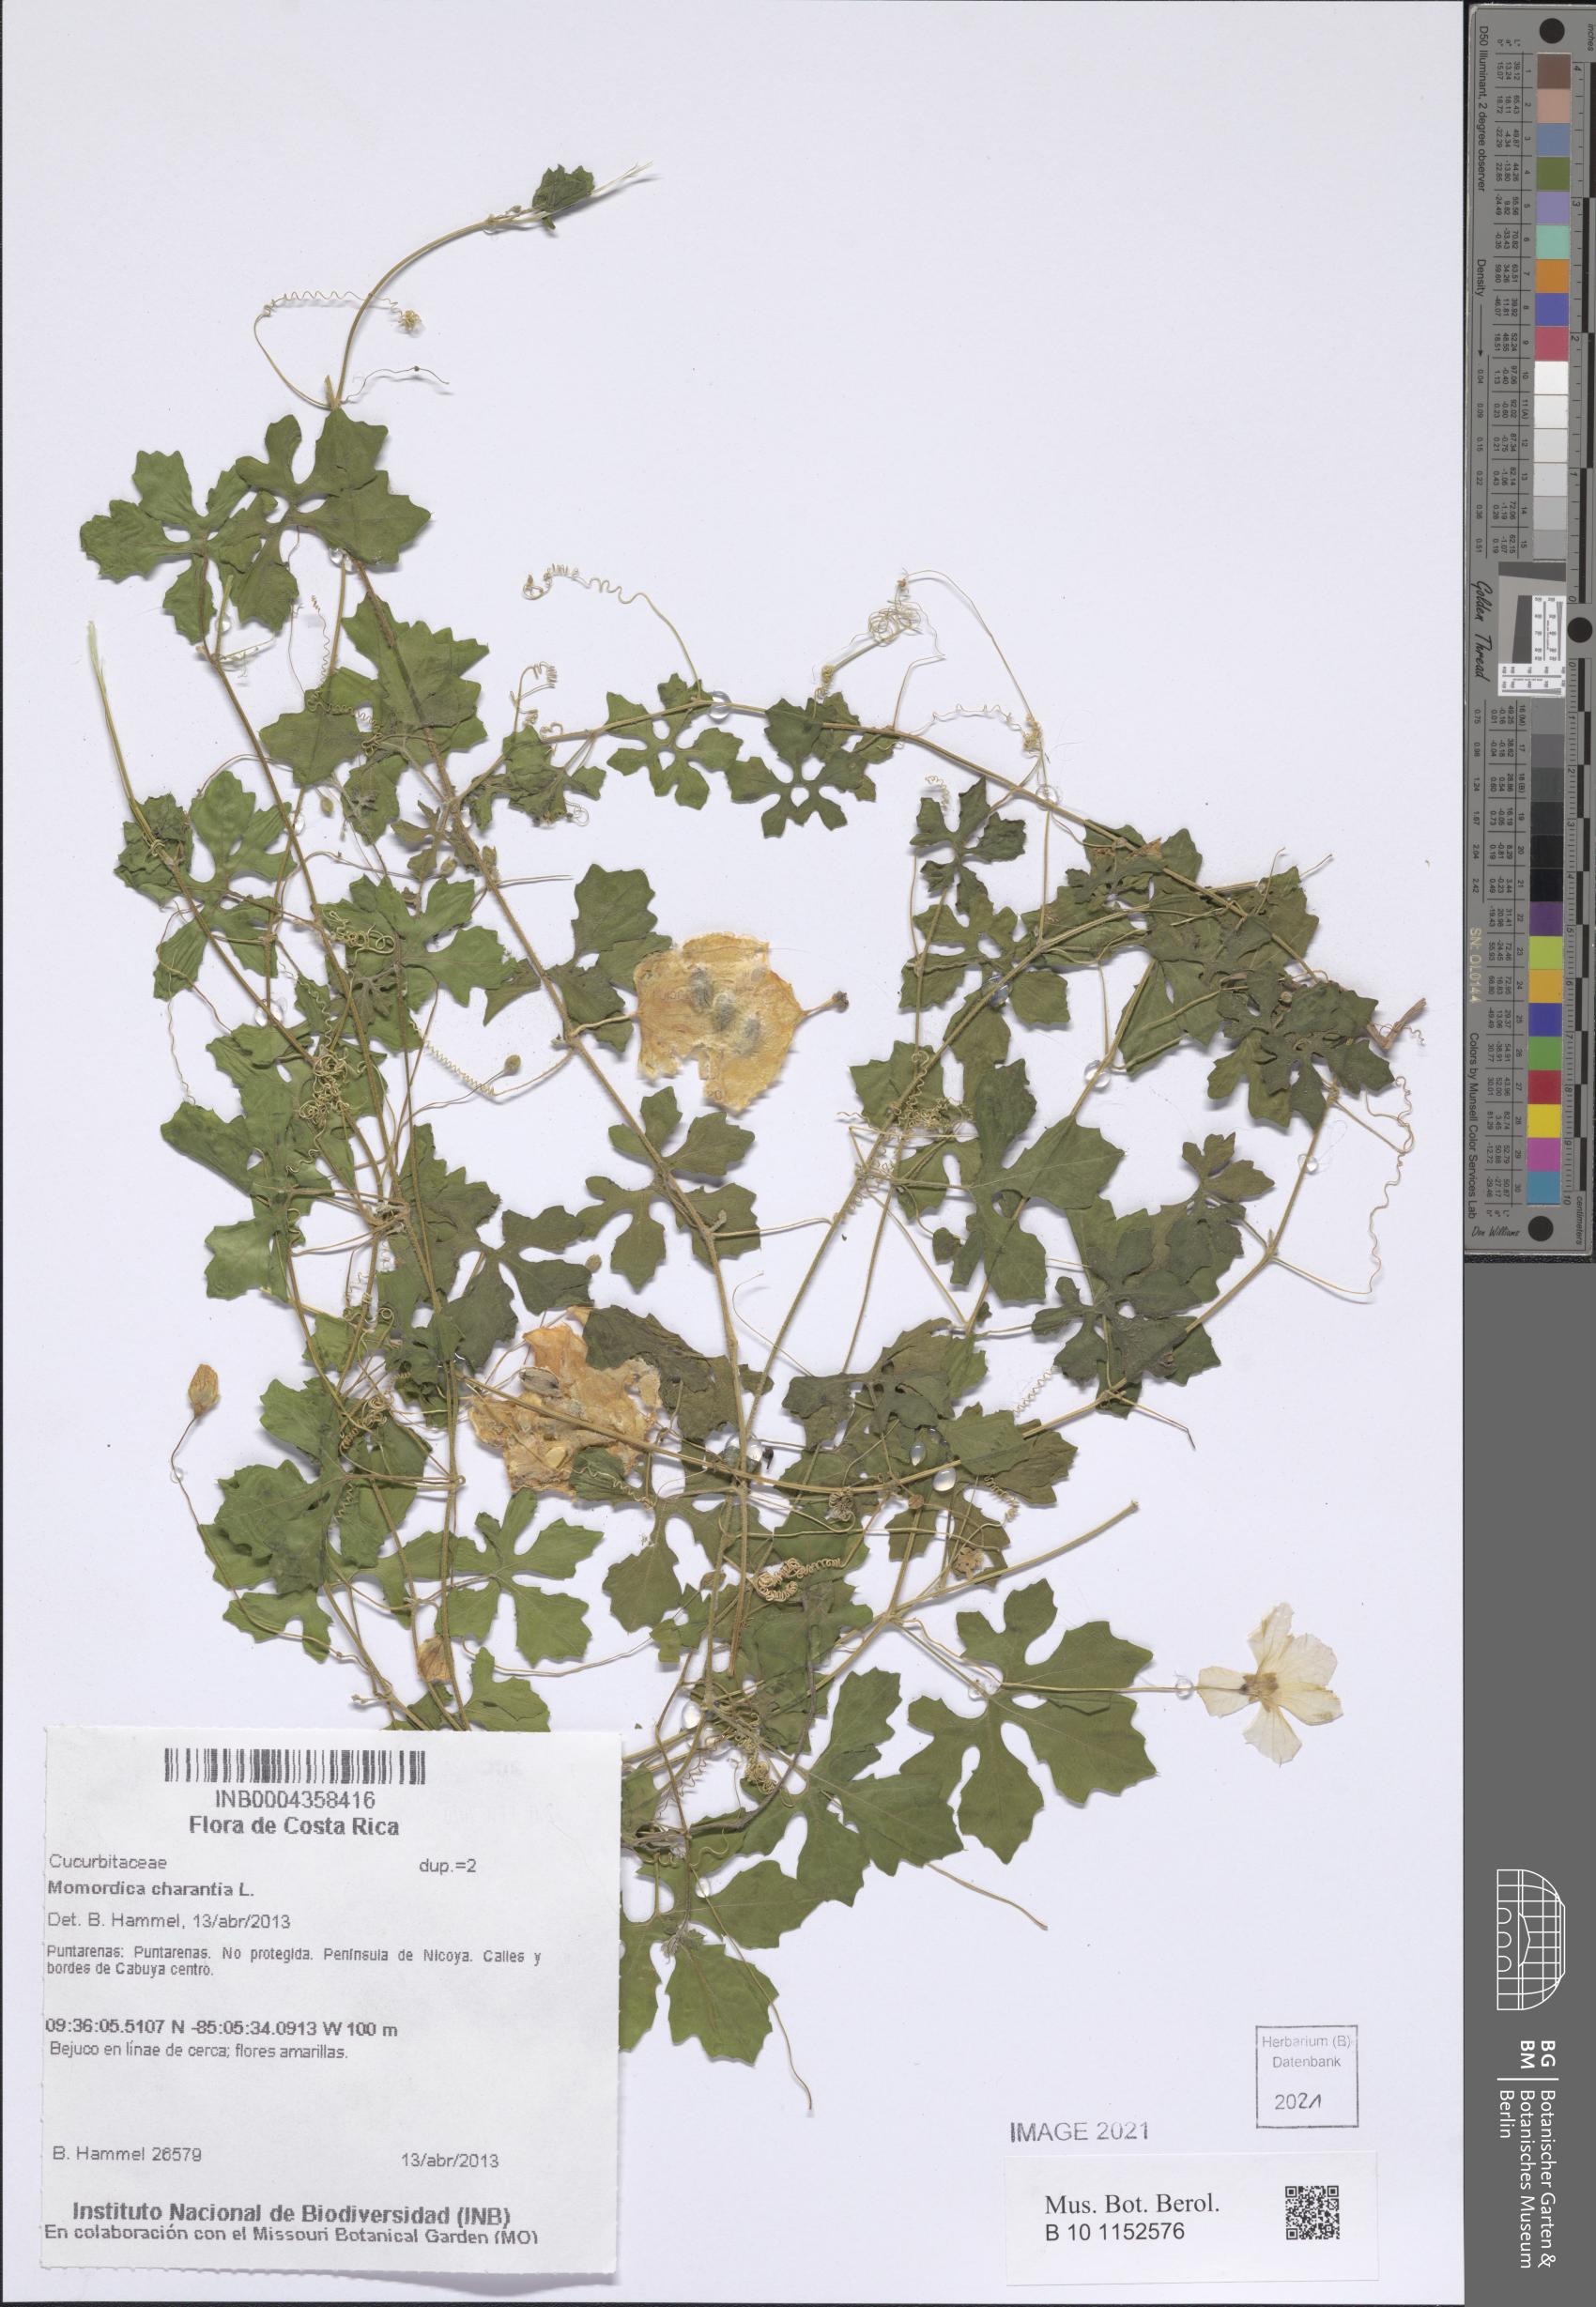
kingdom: Plantae
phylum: Tracheophyta
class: Magnoliopsida
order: Cucurbitales
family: Cucurbitaceae
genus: Momordica
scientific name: Momordica charantia
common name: Balsampear
